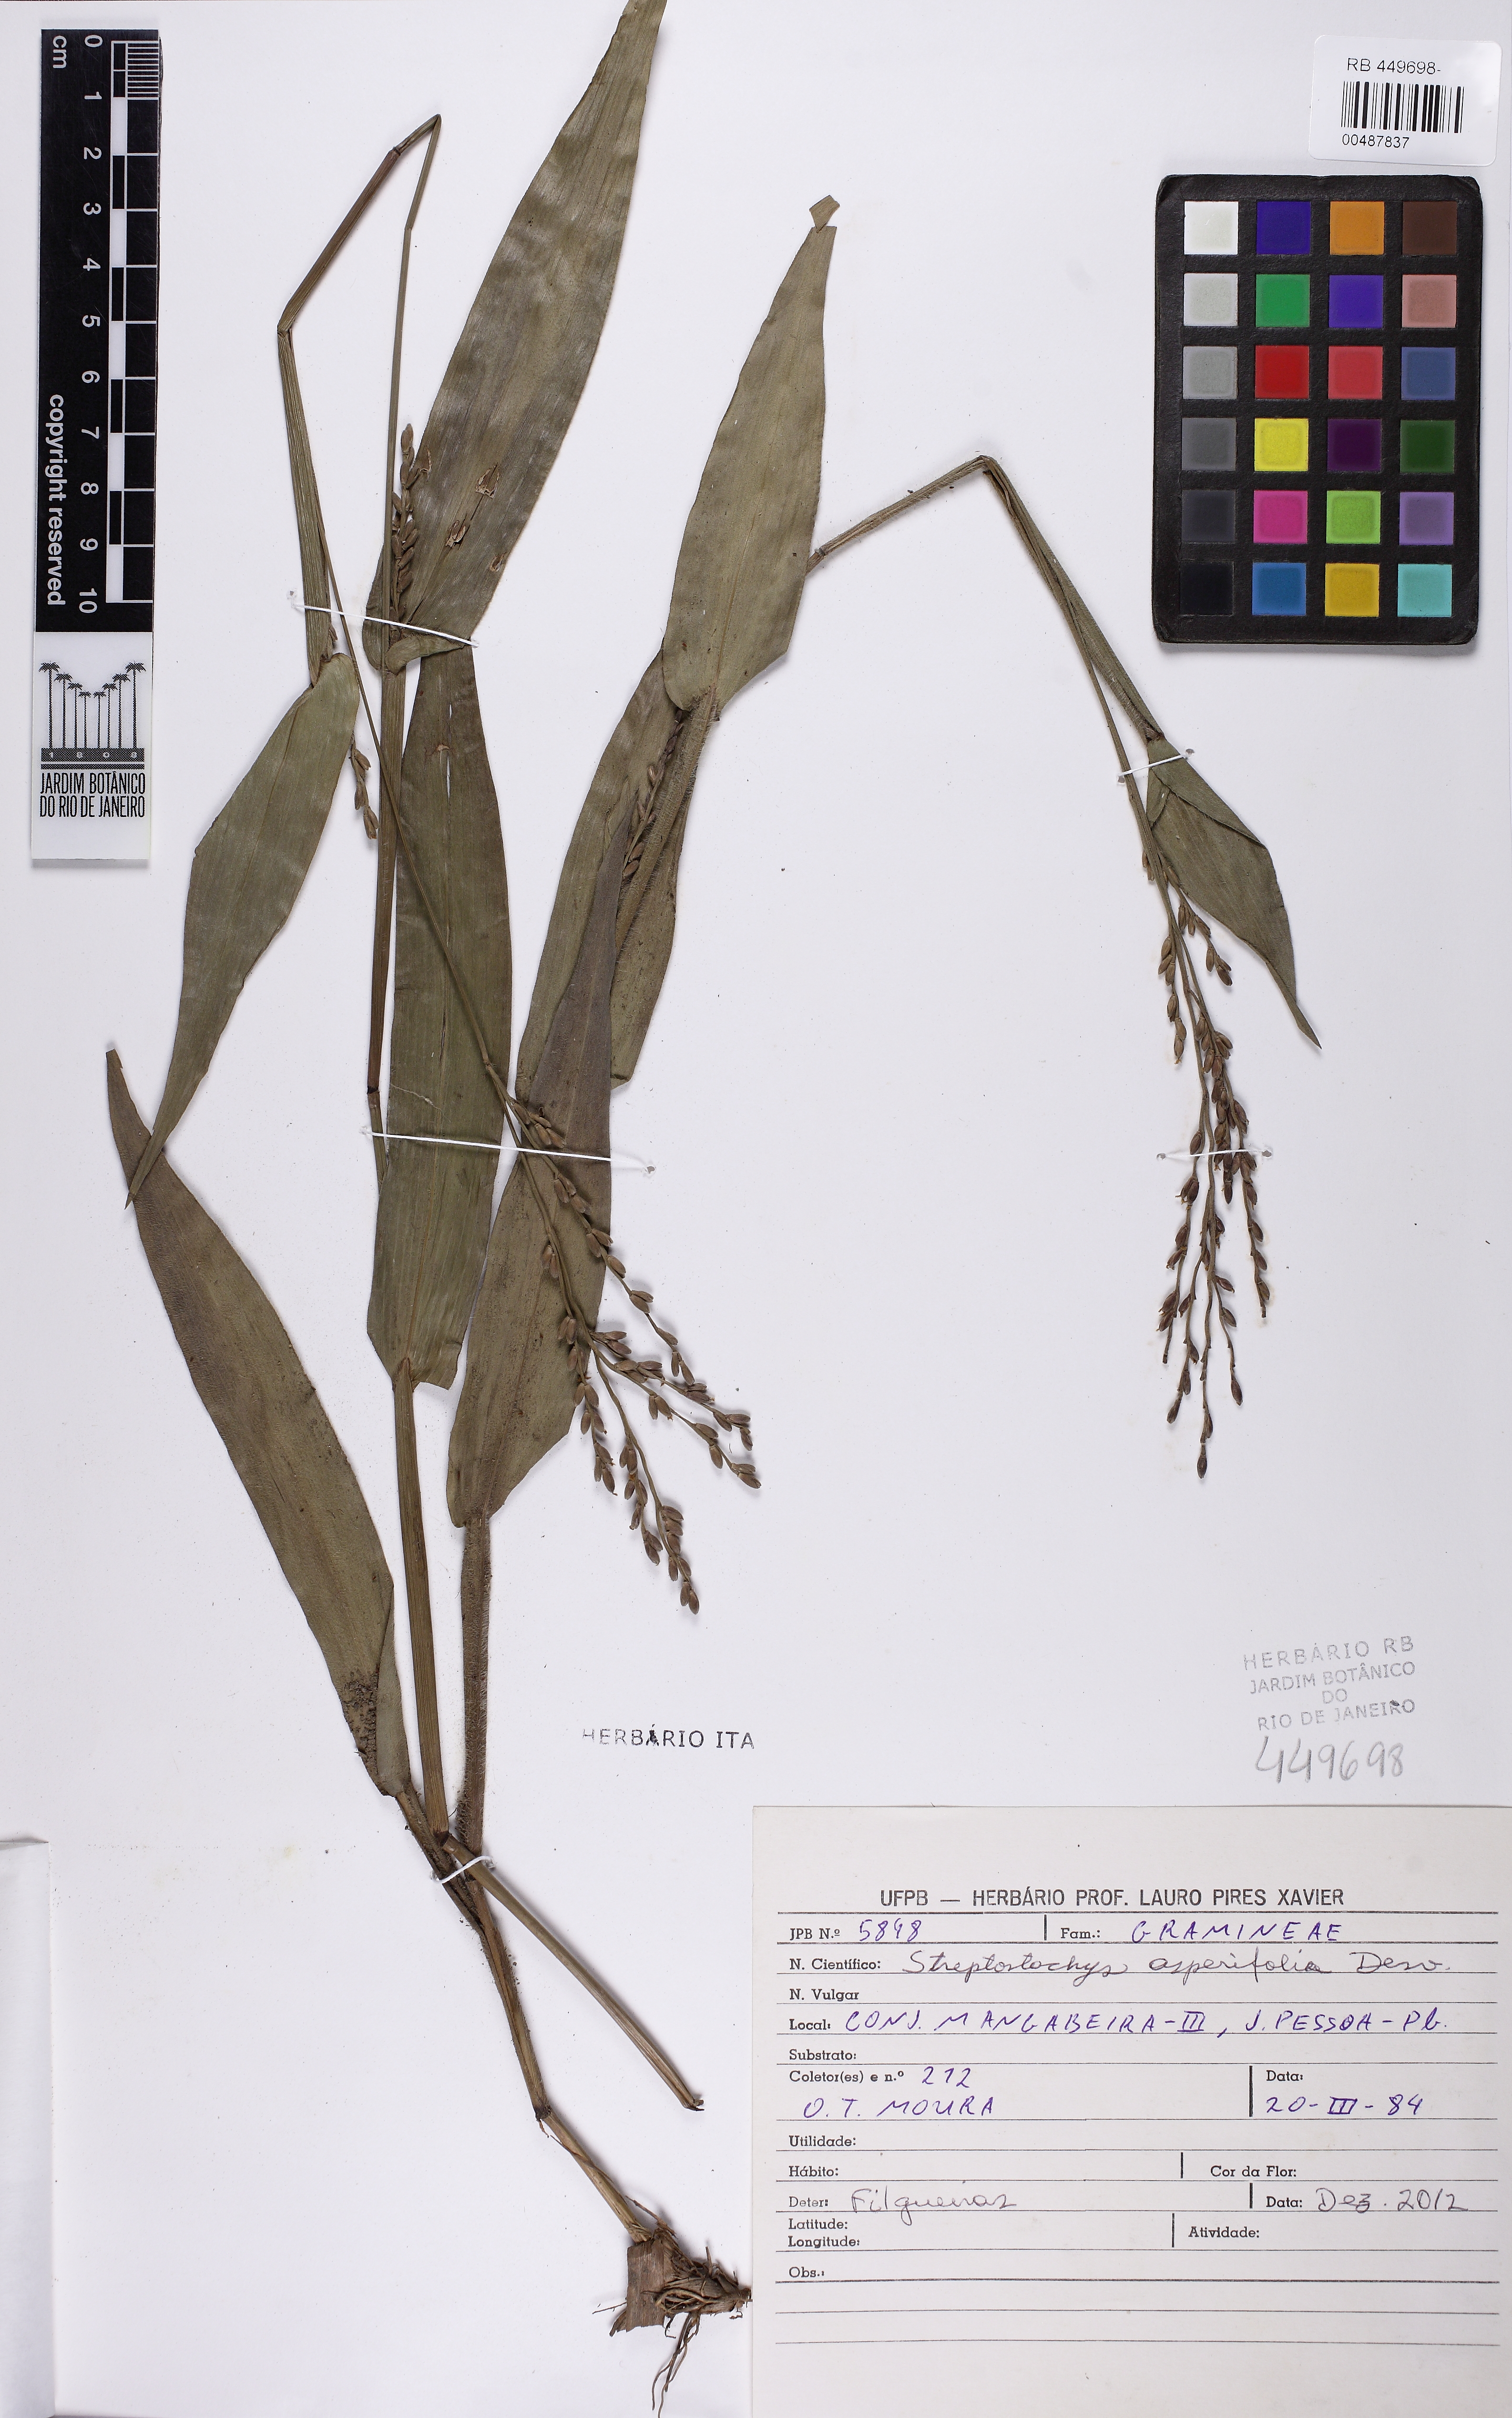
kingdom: Plantae
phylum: Tracheophyta
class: Magnoliopsida
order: Myrtales
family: Melastomataceae
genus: Marcetia
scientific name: Marcetia taxifolia
